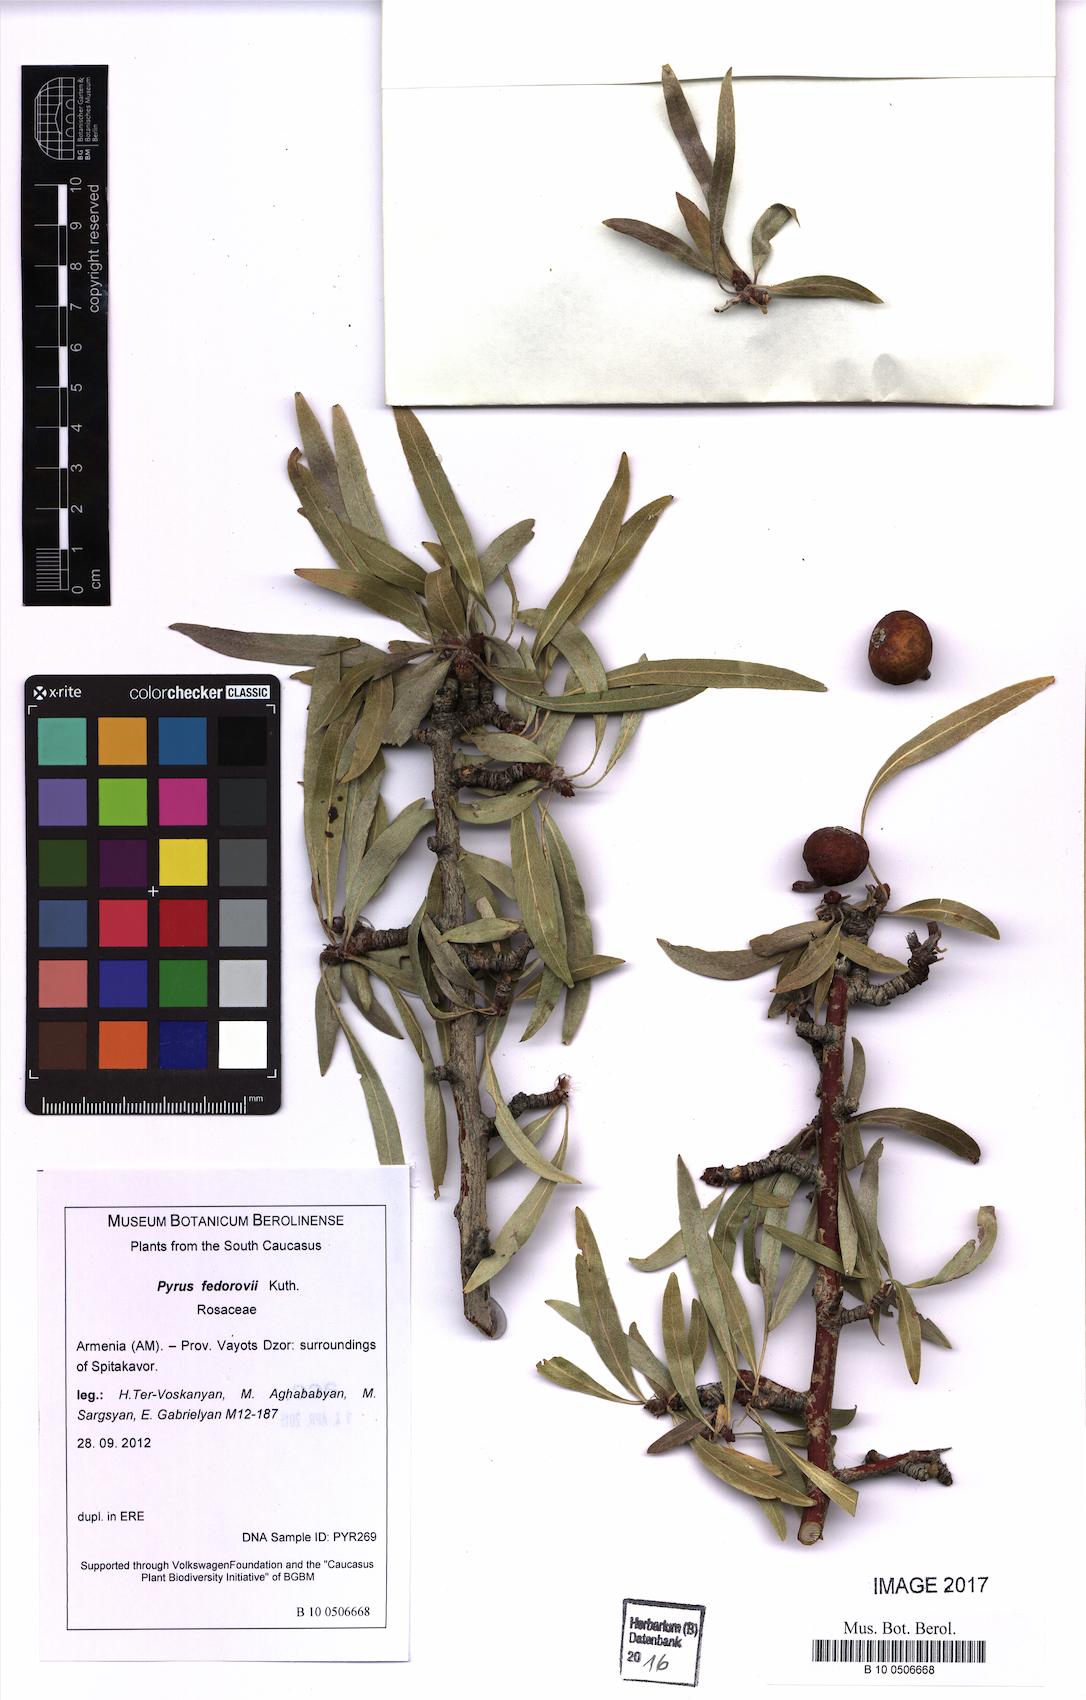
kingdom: Plantae
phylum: Tracheophyta
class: Magnoliopsida
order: Rosales
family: Rosaceae
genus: Pyrus
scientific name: Pyrus fedorovii
